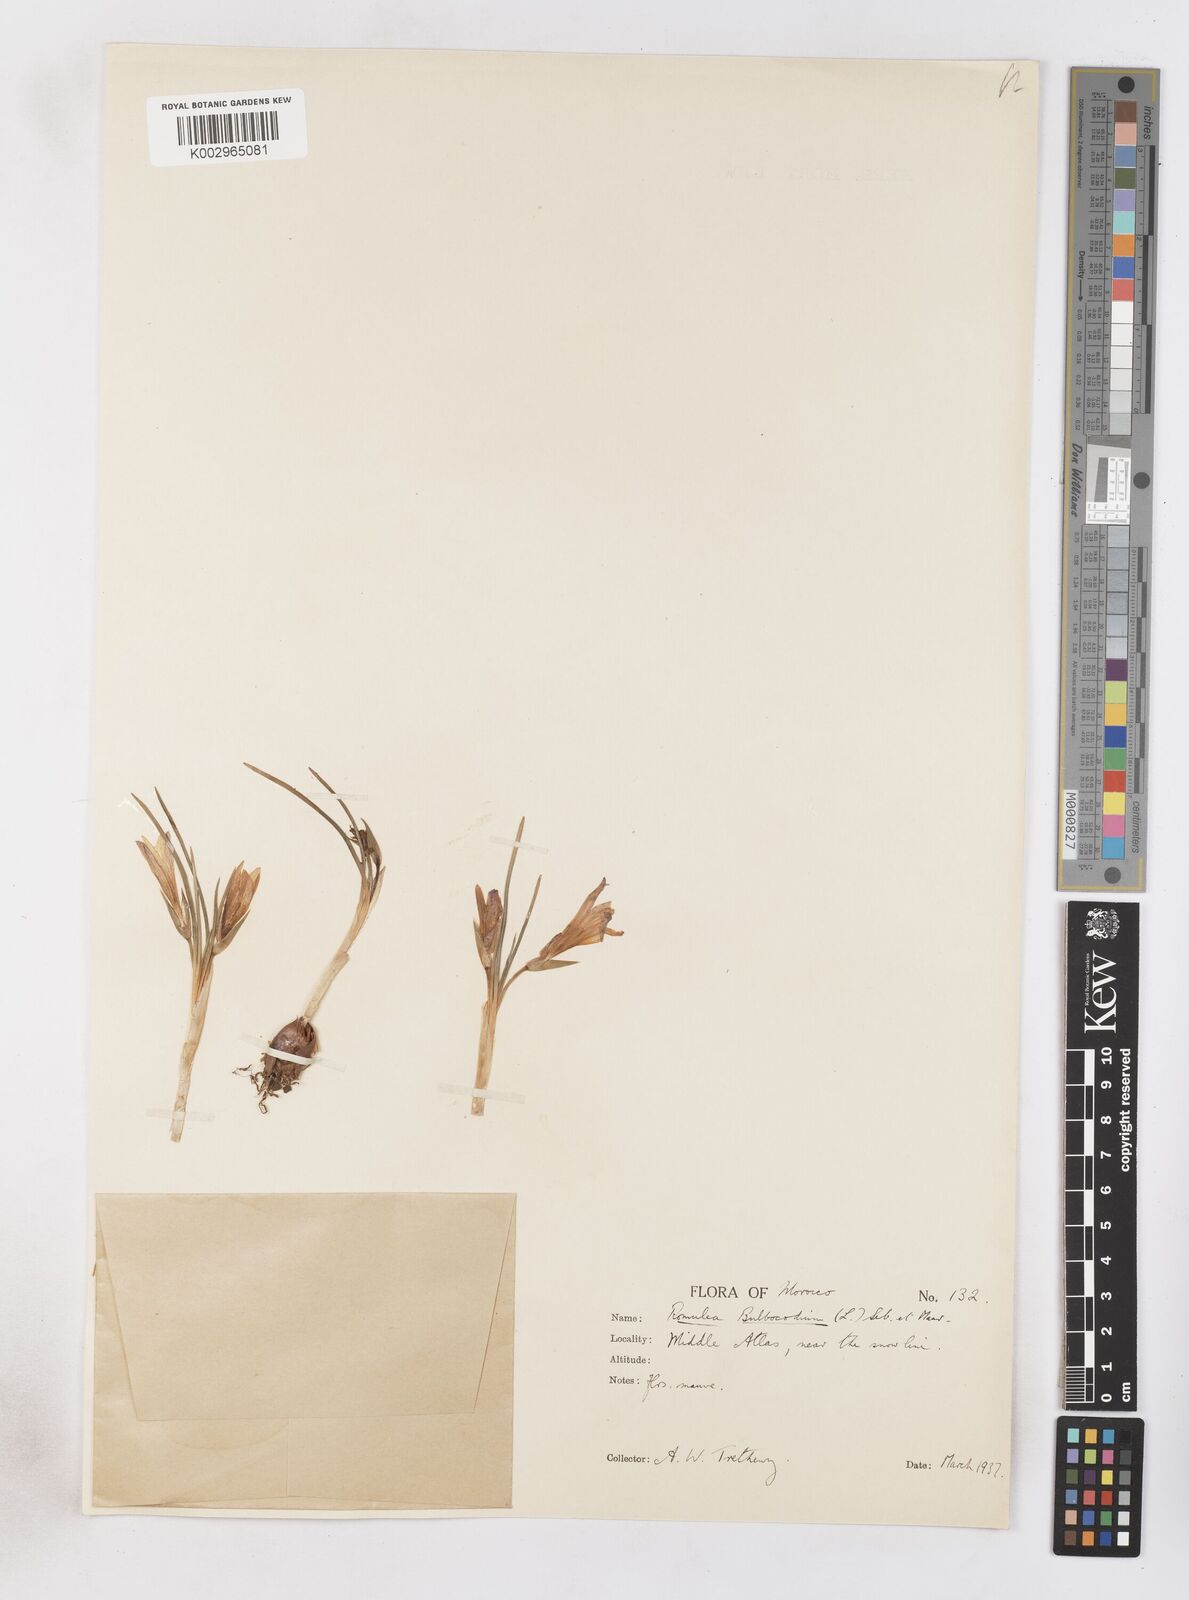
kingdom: Plantae
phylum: Tracheophyta
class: Liliopsida
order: Asparagales
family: Iridaceae
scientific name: Iridaceae
